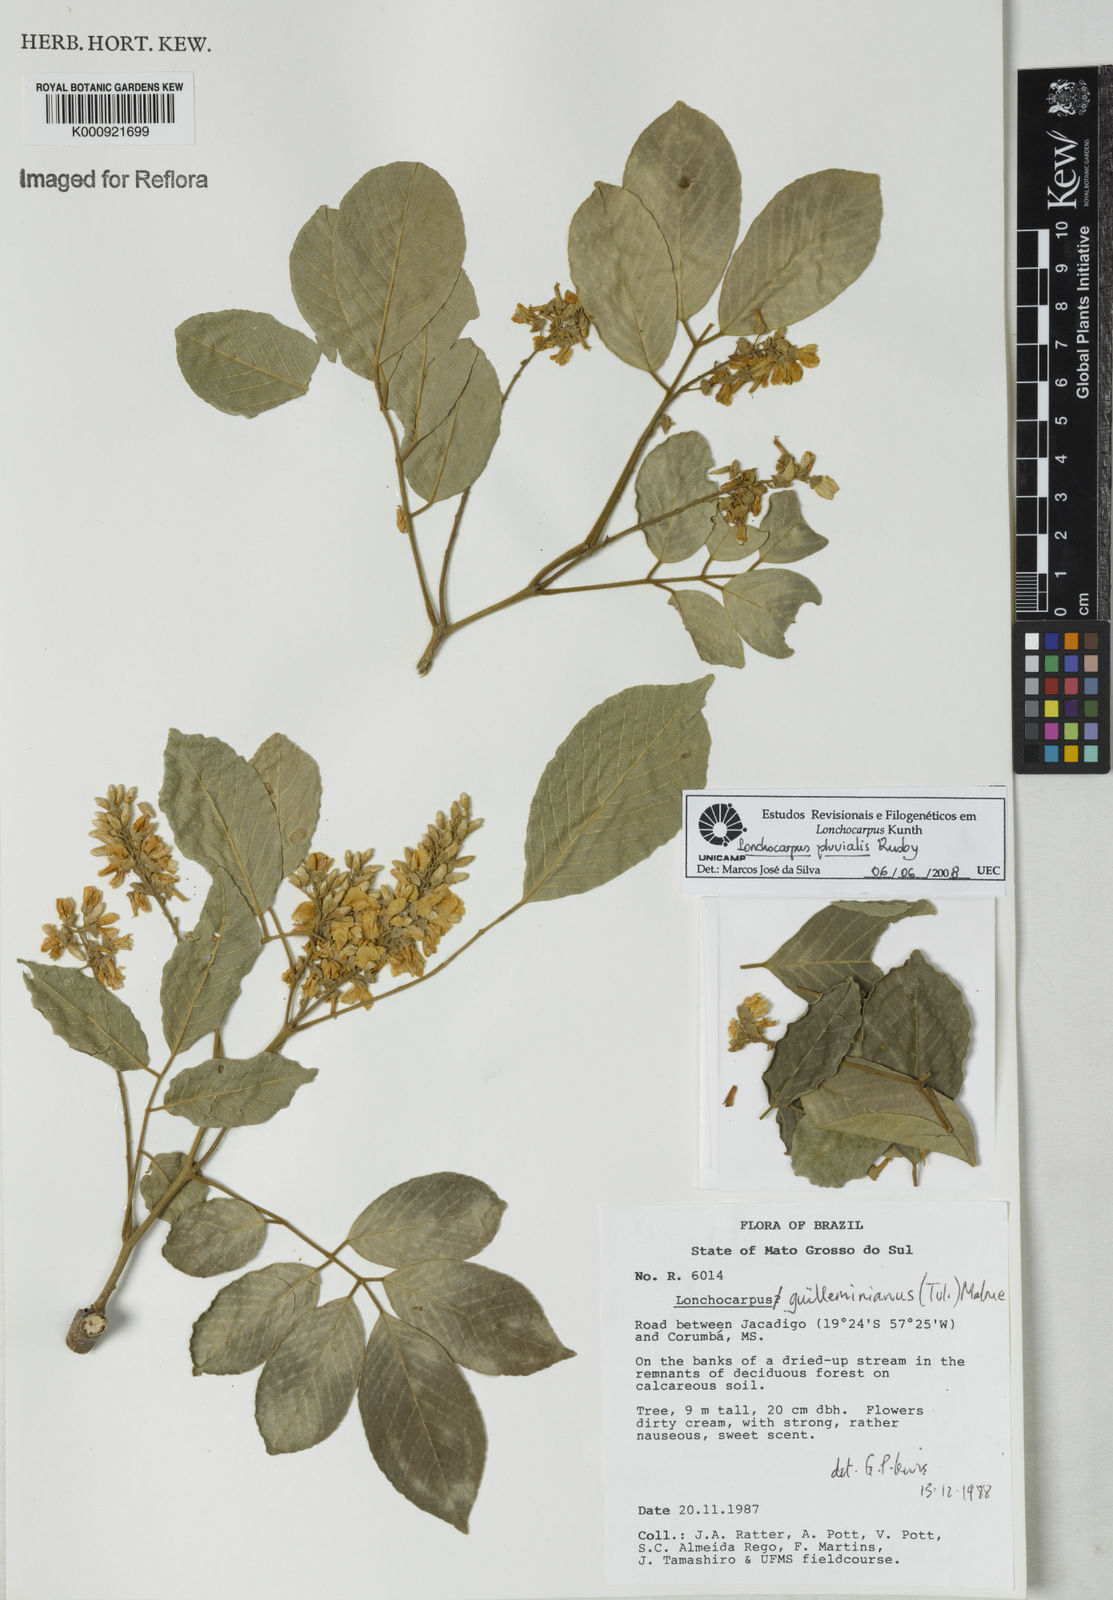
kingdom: Plantae
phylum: Tracheophyta
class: Magnoliopsida
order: Fabales
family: Fabaceae
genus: Lonchocarpus
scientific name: Lonchocarpus pluvialis
